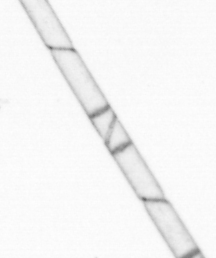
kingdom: Chromista
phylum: Ochrophyta
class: Bacillariophyceae
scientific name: Bacillariophyceae
